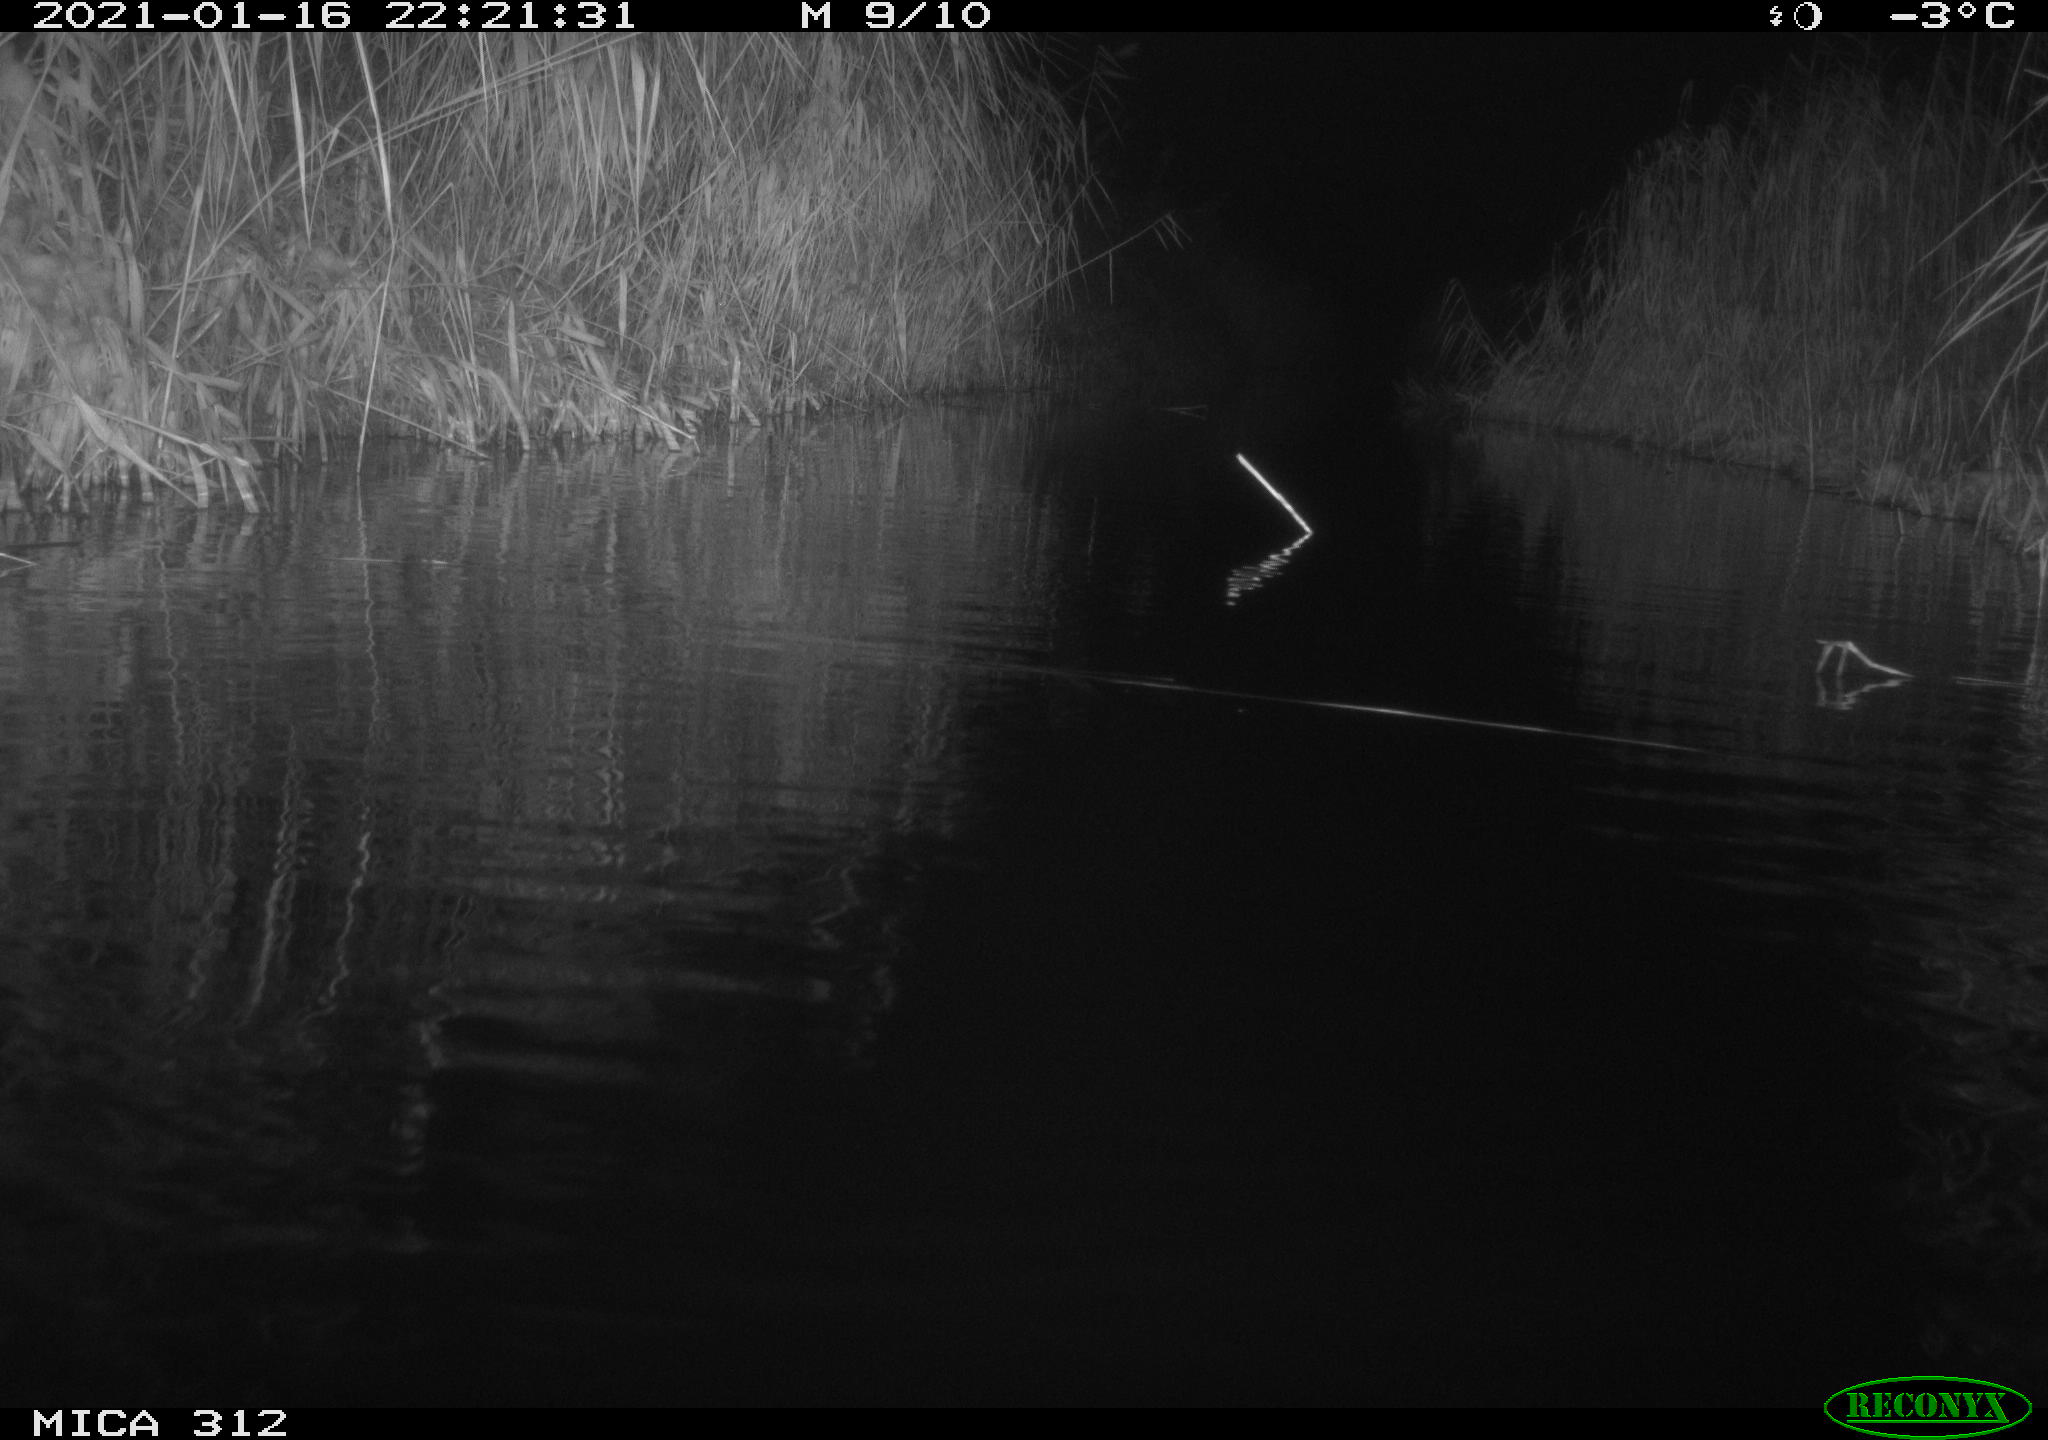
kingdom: Animalia
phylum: Chordata
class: Mammalia
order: Rodentia
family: Muridae
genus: Rattus
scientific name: Rattus norvegicus
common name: Brown rat
